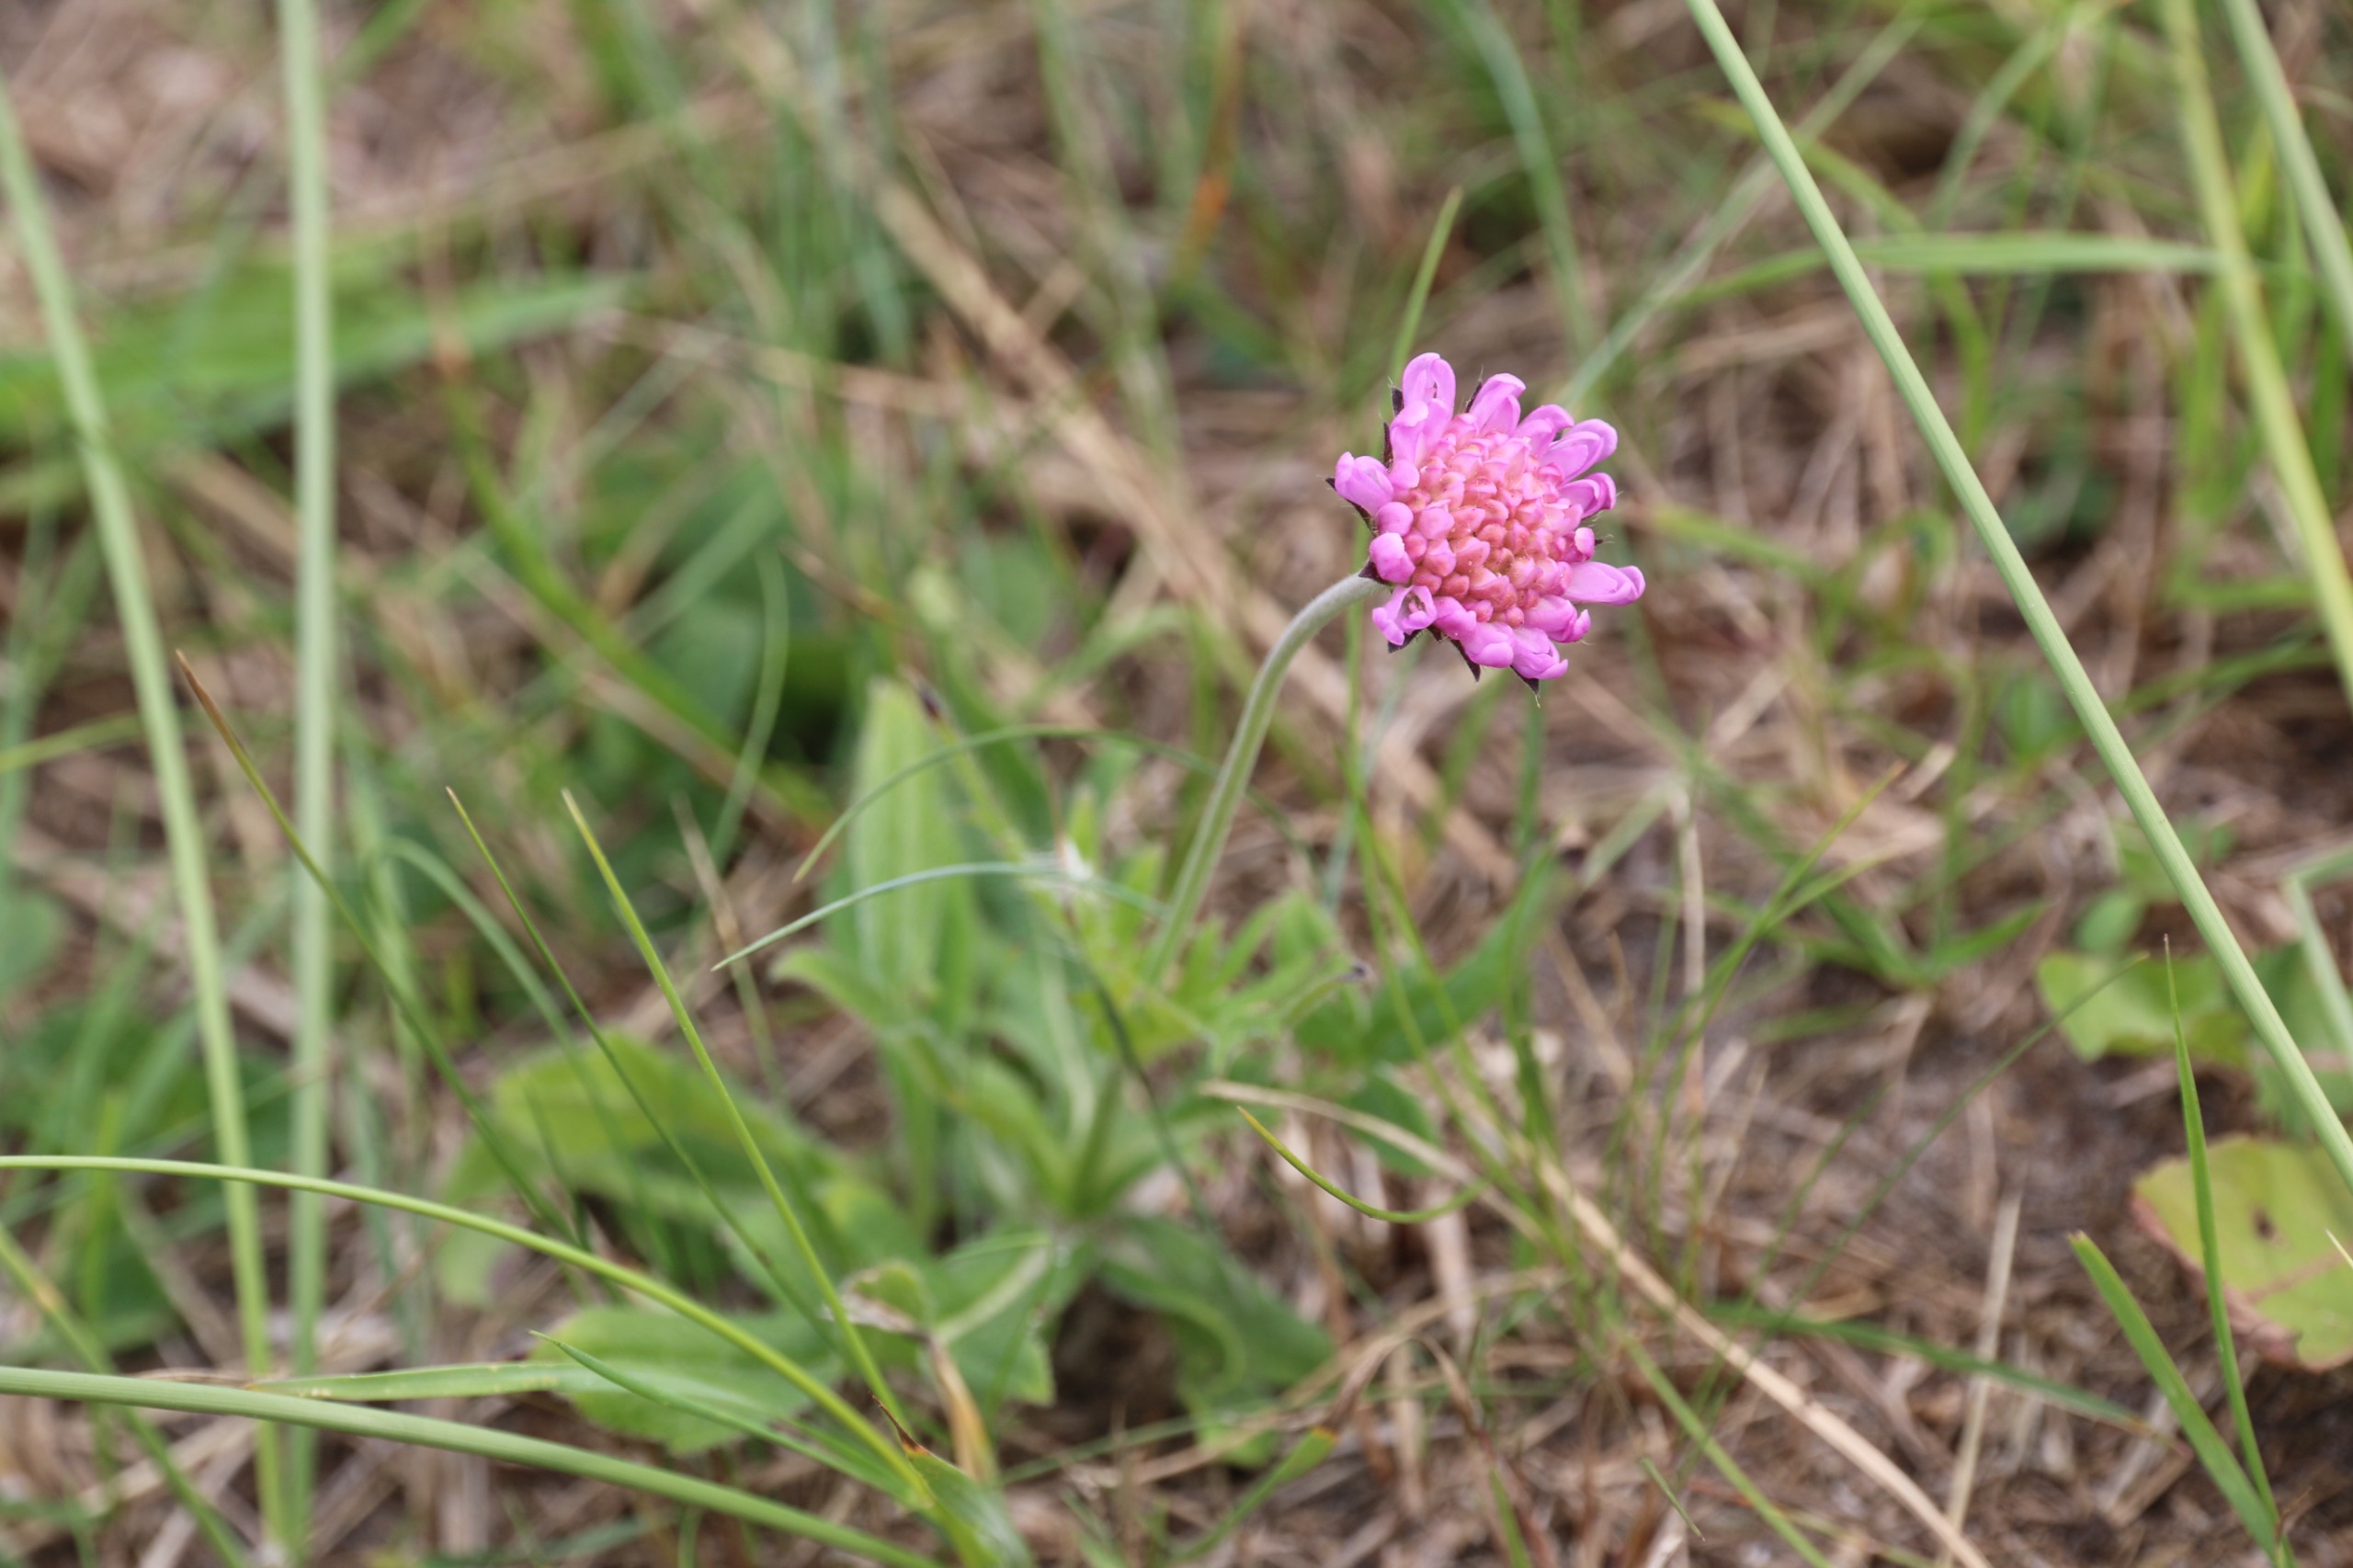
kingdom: Plantae
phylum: Tracheophyta
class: Magnoliopsida
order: Dipsacales
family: Caprifoliaceae
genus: Knautia
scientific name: Knautia arvensis
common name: Blåhat
